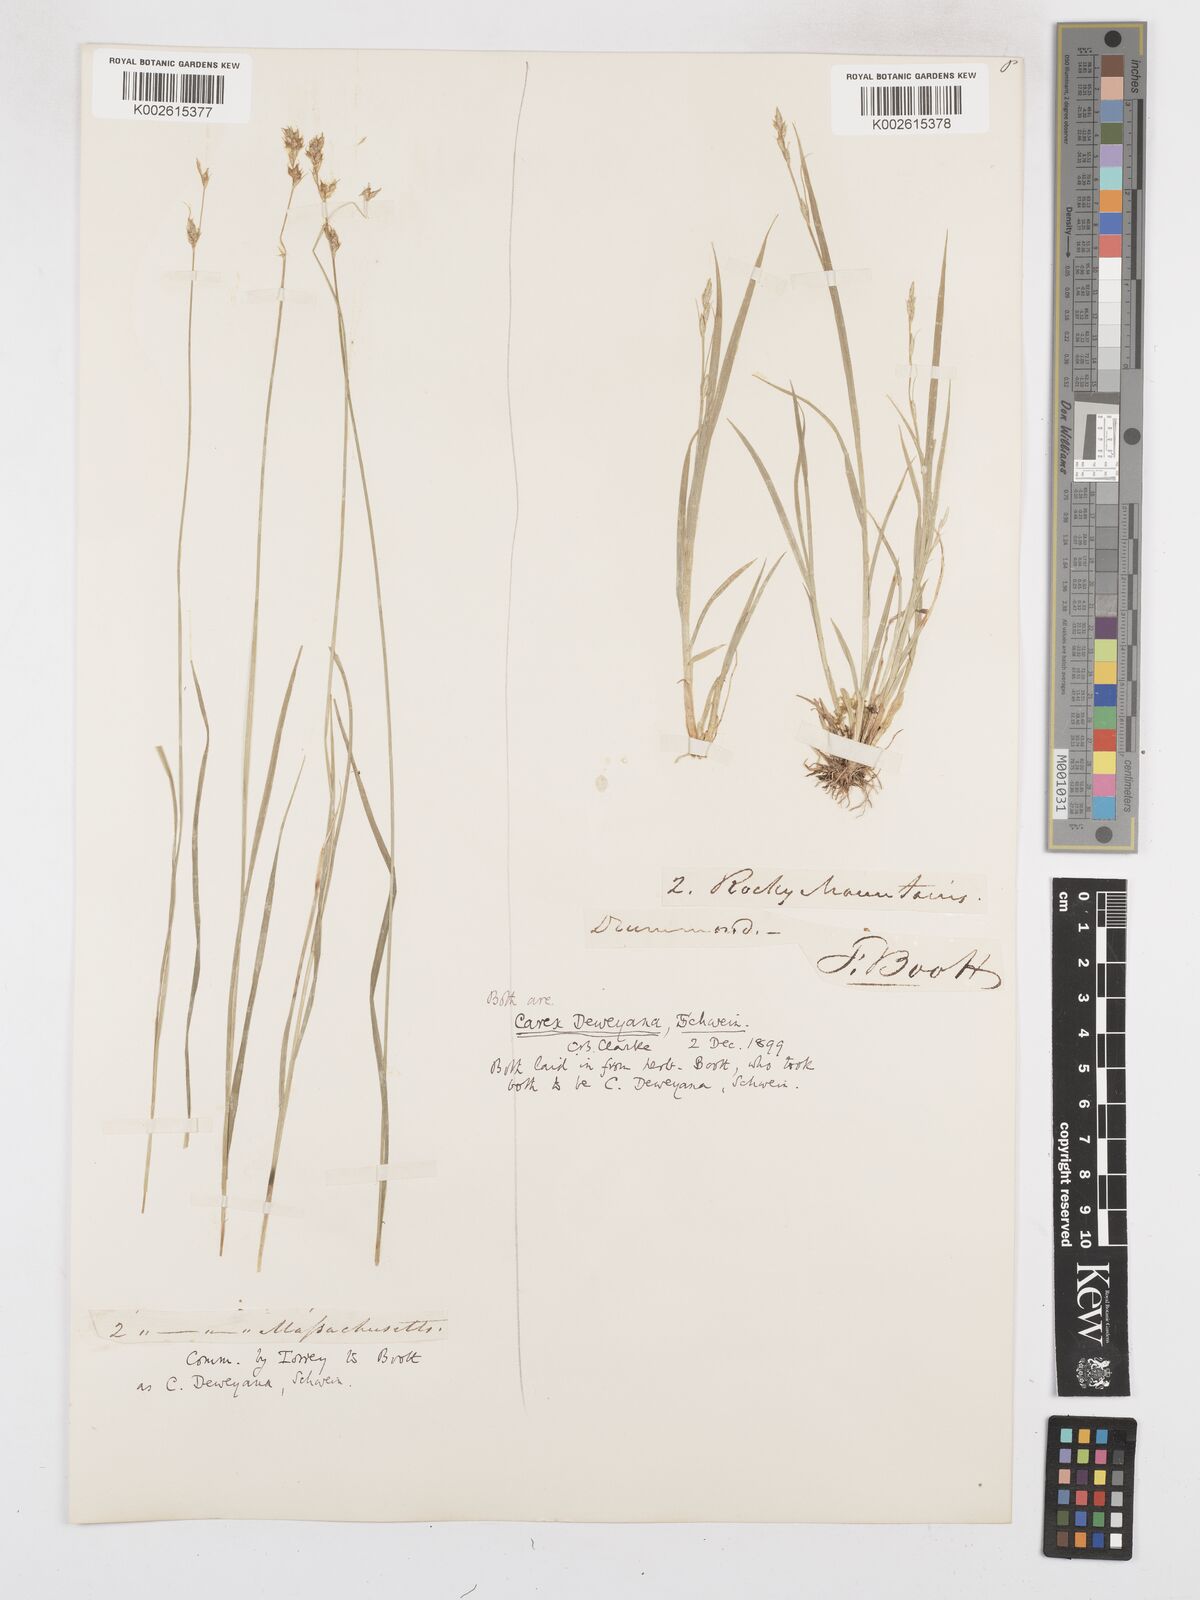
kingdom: Plantae
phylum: Tracheophyta
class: Liliopsida
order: Poales
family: Cyperaceae
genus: Carex
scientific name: Carex deweyana
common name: Dewey's sedge
